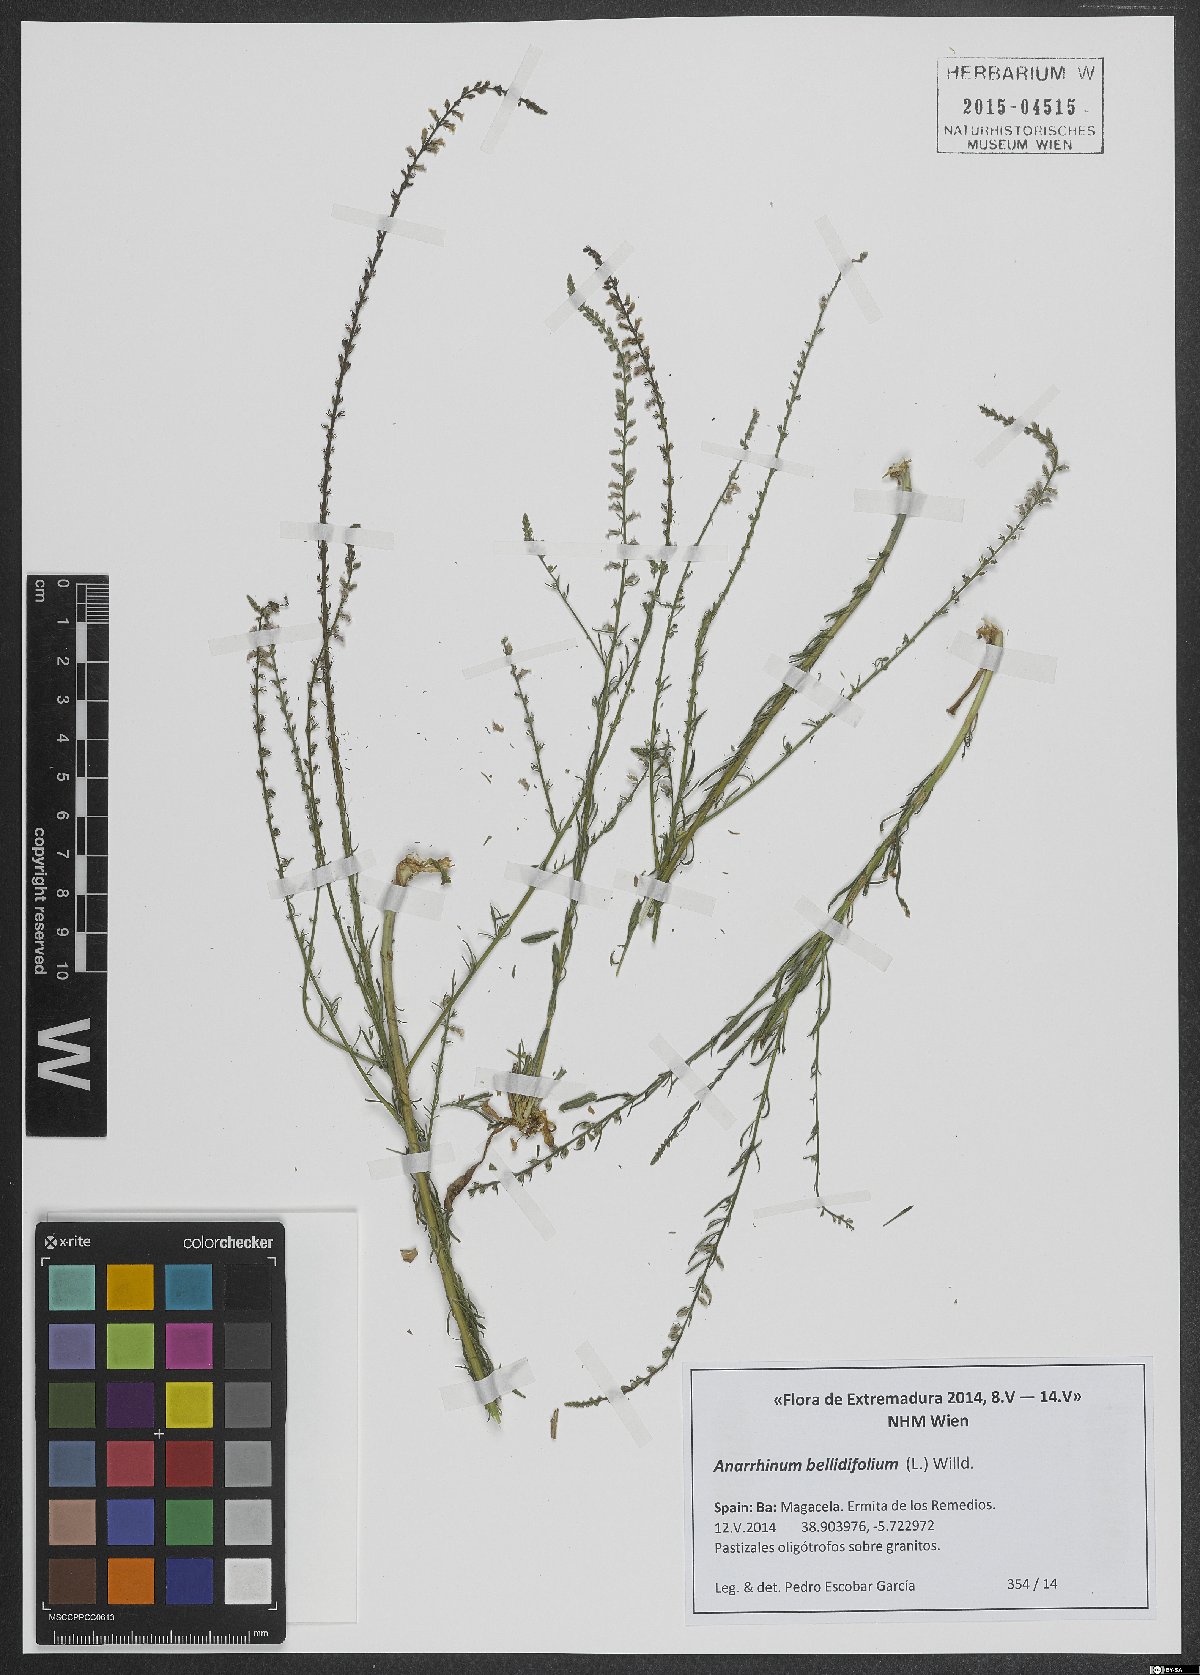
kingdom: Plantae
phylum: Tracheophyta
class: Magnoliopsida
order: Lamiales
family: Plantaginaceae
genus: Anarrhinum
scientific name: Anarrhinum bellidifolium
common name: Daisy-leaved toadflax
